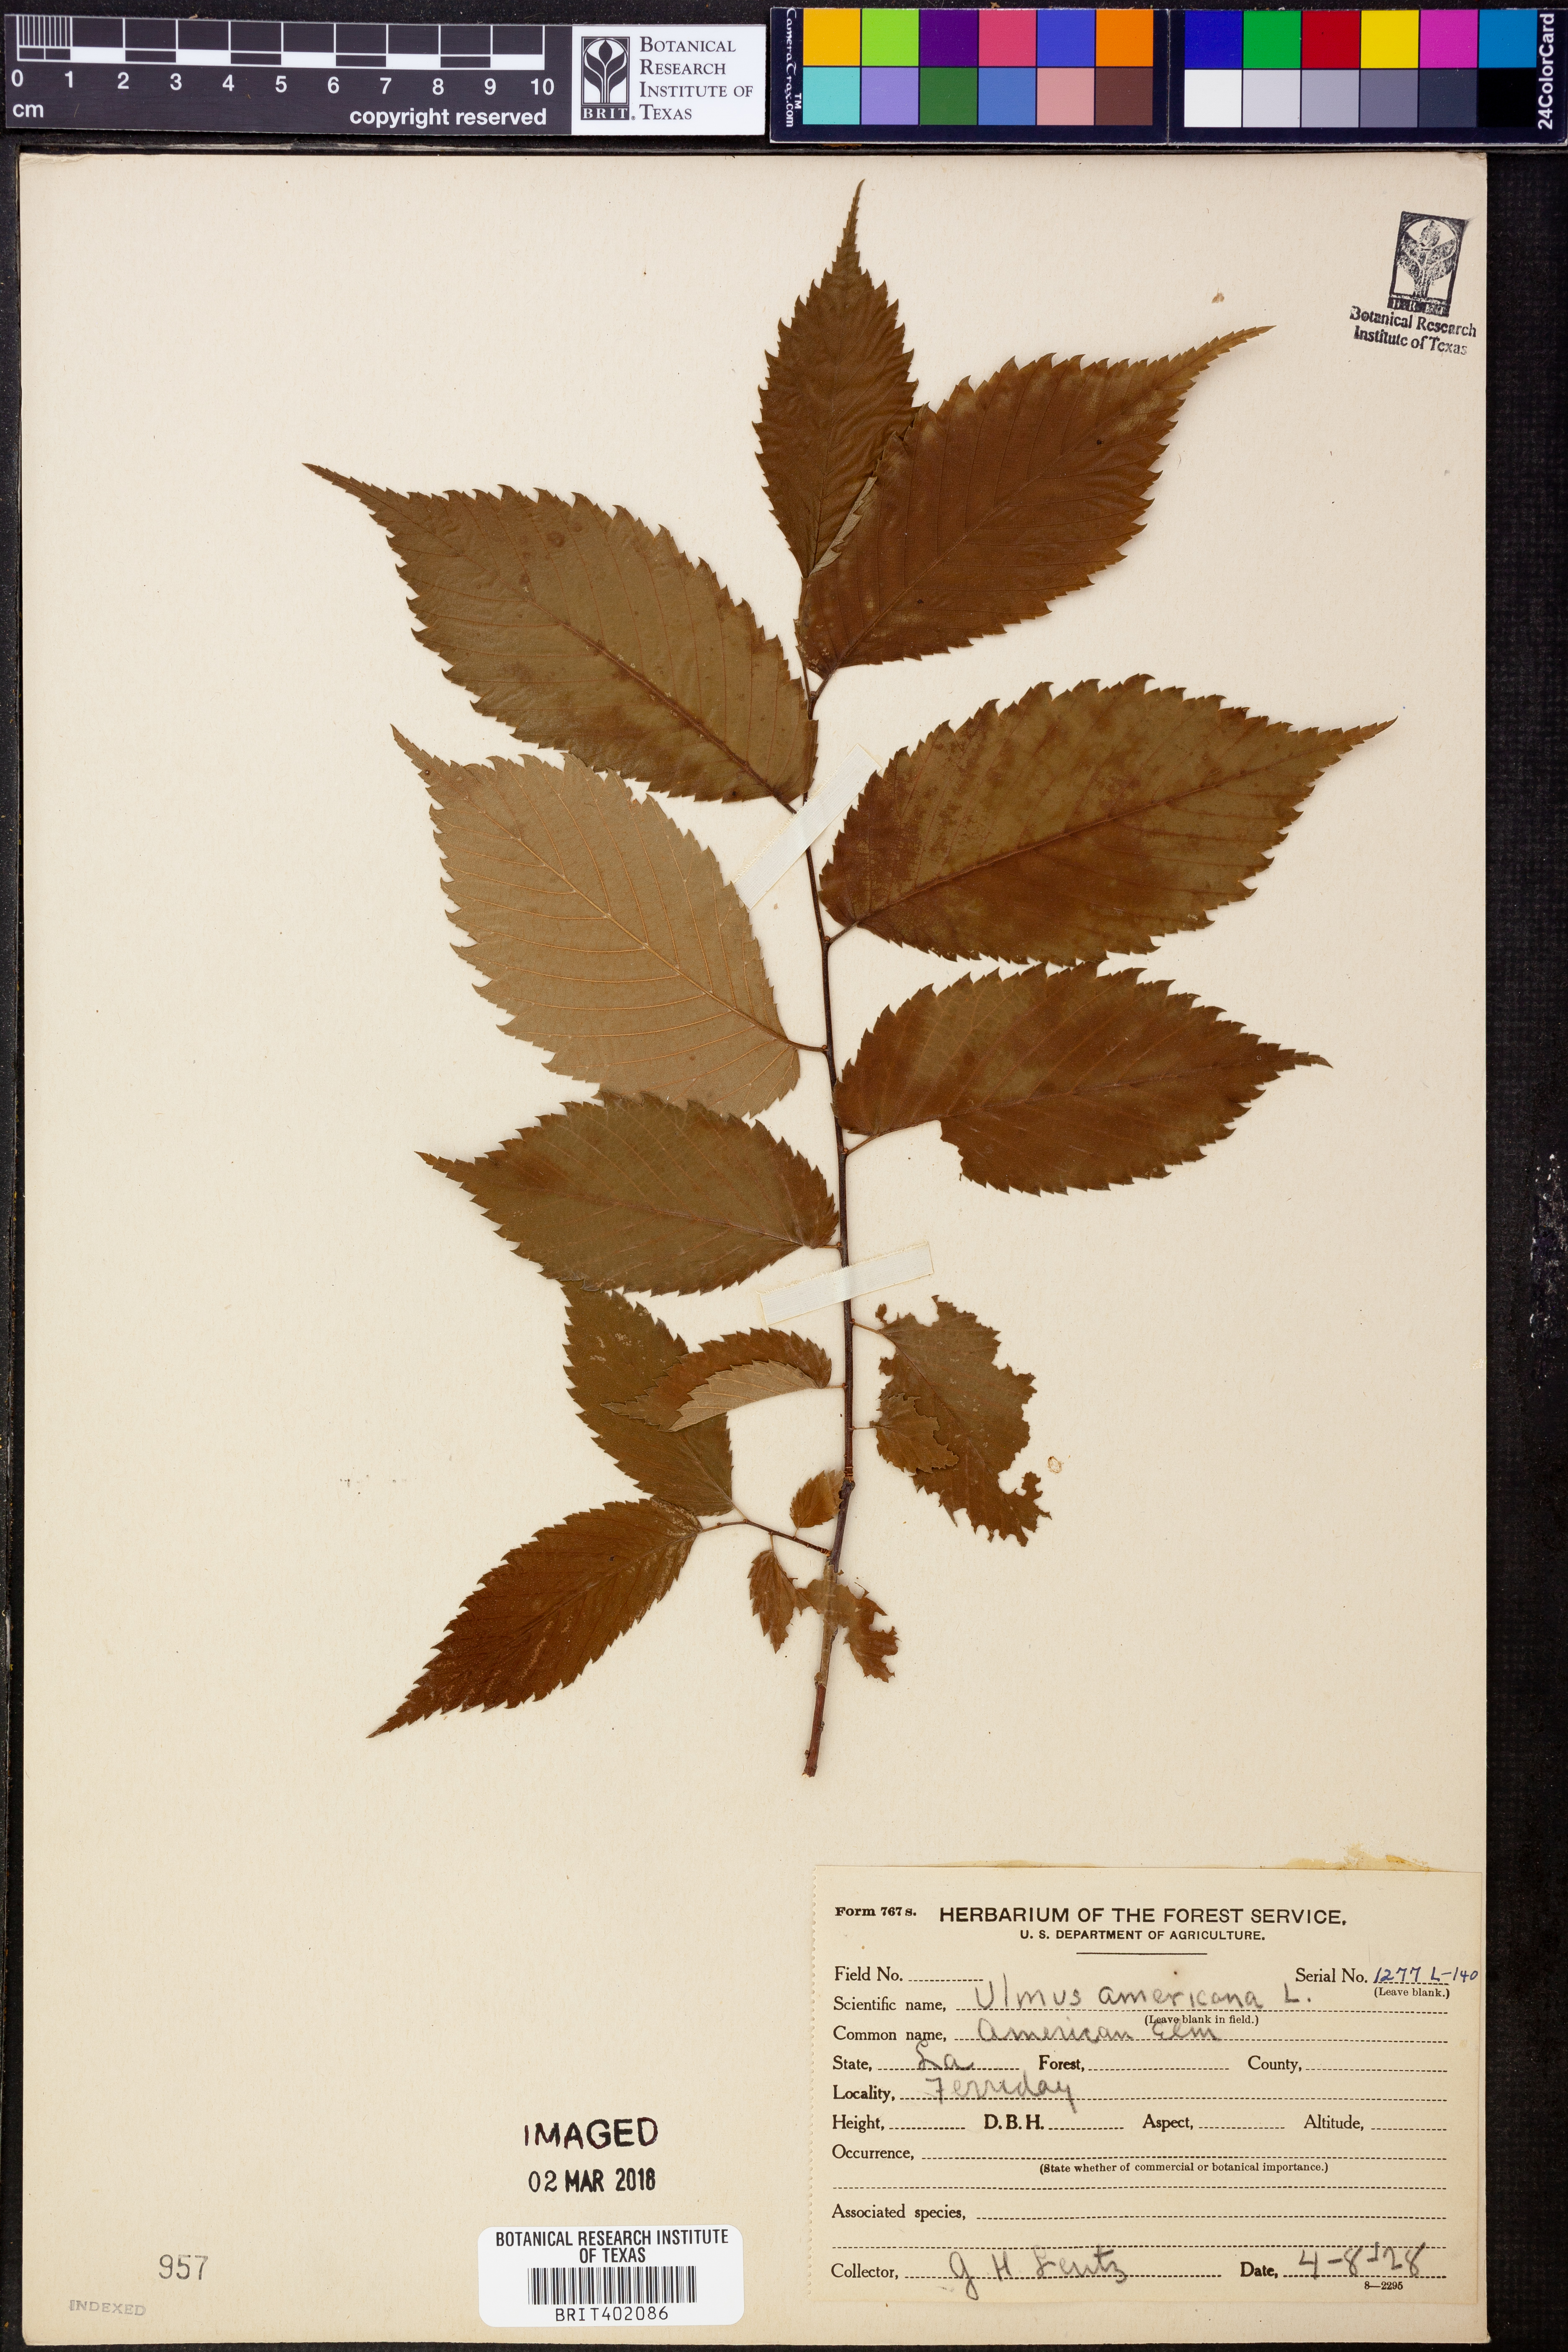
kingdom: Plantae
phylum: Tracheophyta
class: Magnoliopsida
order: Rosales
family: Ulmaceae
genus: Ulmus
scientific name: Ulmus americana
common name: American elm
